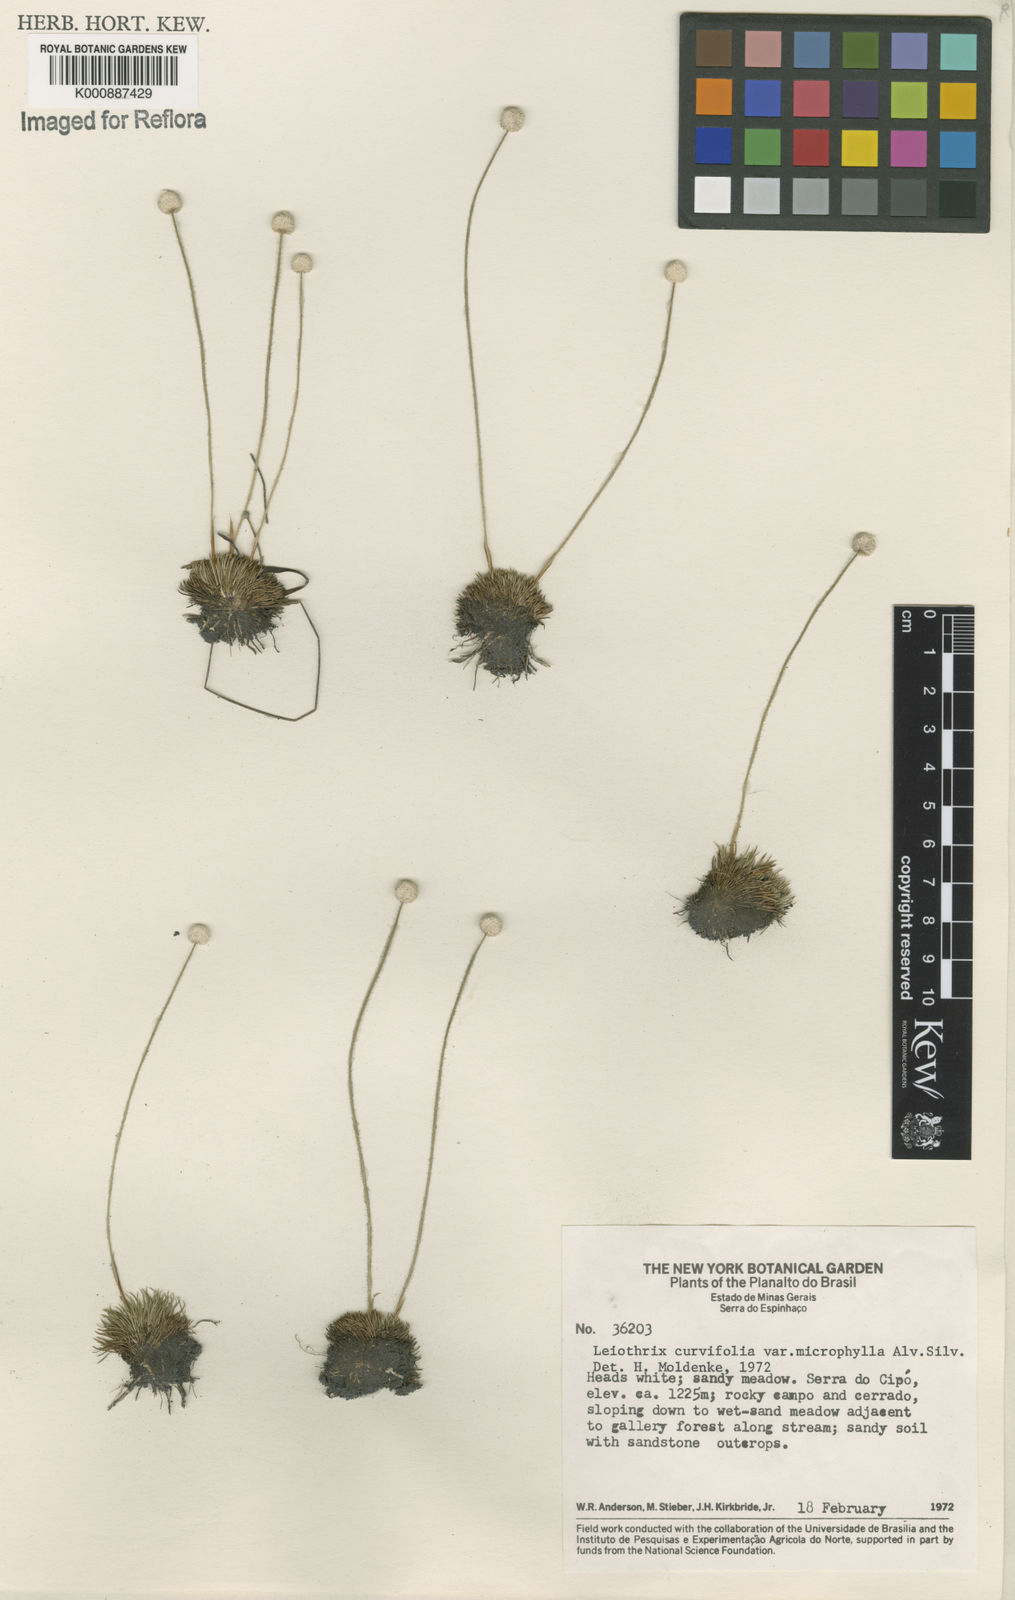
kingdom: Plantae
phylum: Tracheophyta
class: Liliopsida
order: Poales
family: Eriocaulaceae
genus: Paepalanthus
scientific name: Paepalanthus sphaerocephalus
